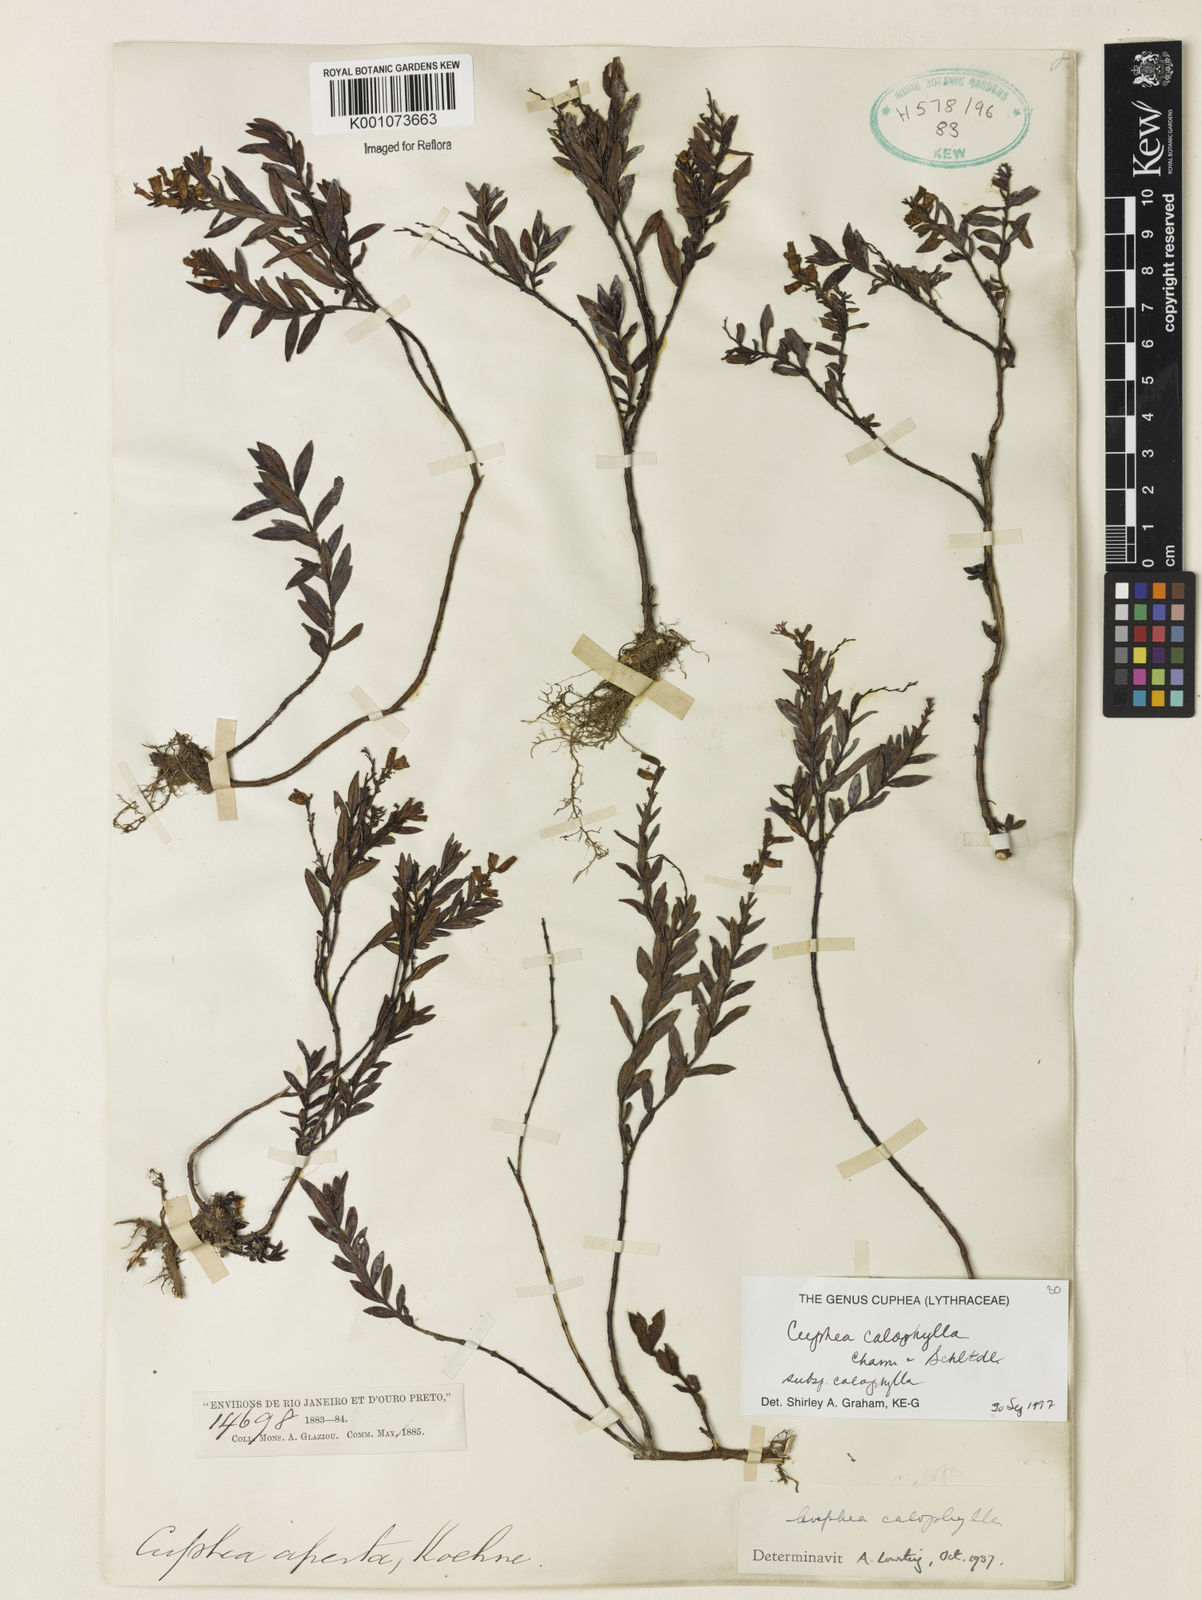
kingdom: Plantae
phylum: Tracheophyta
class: Magnoliopsida
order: Myrtales
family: Lythraceae
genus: Cuphea
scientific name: Cuphea calophylla
